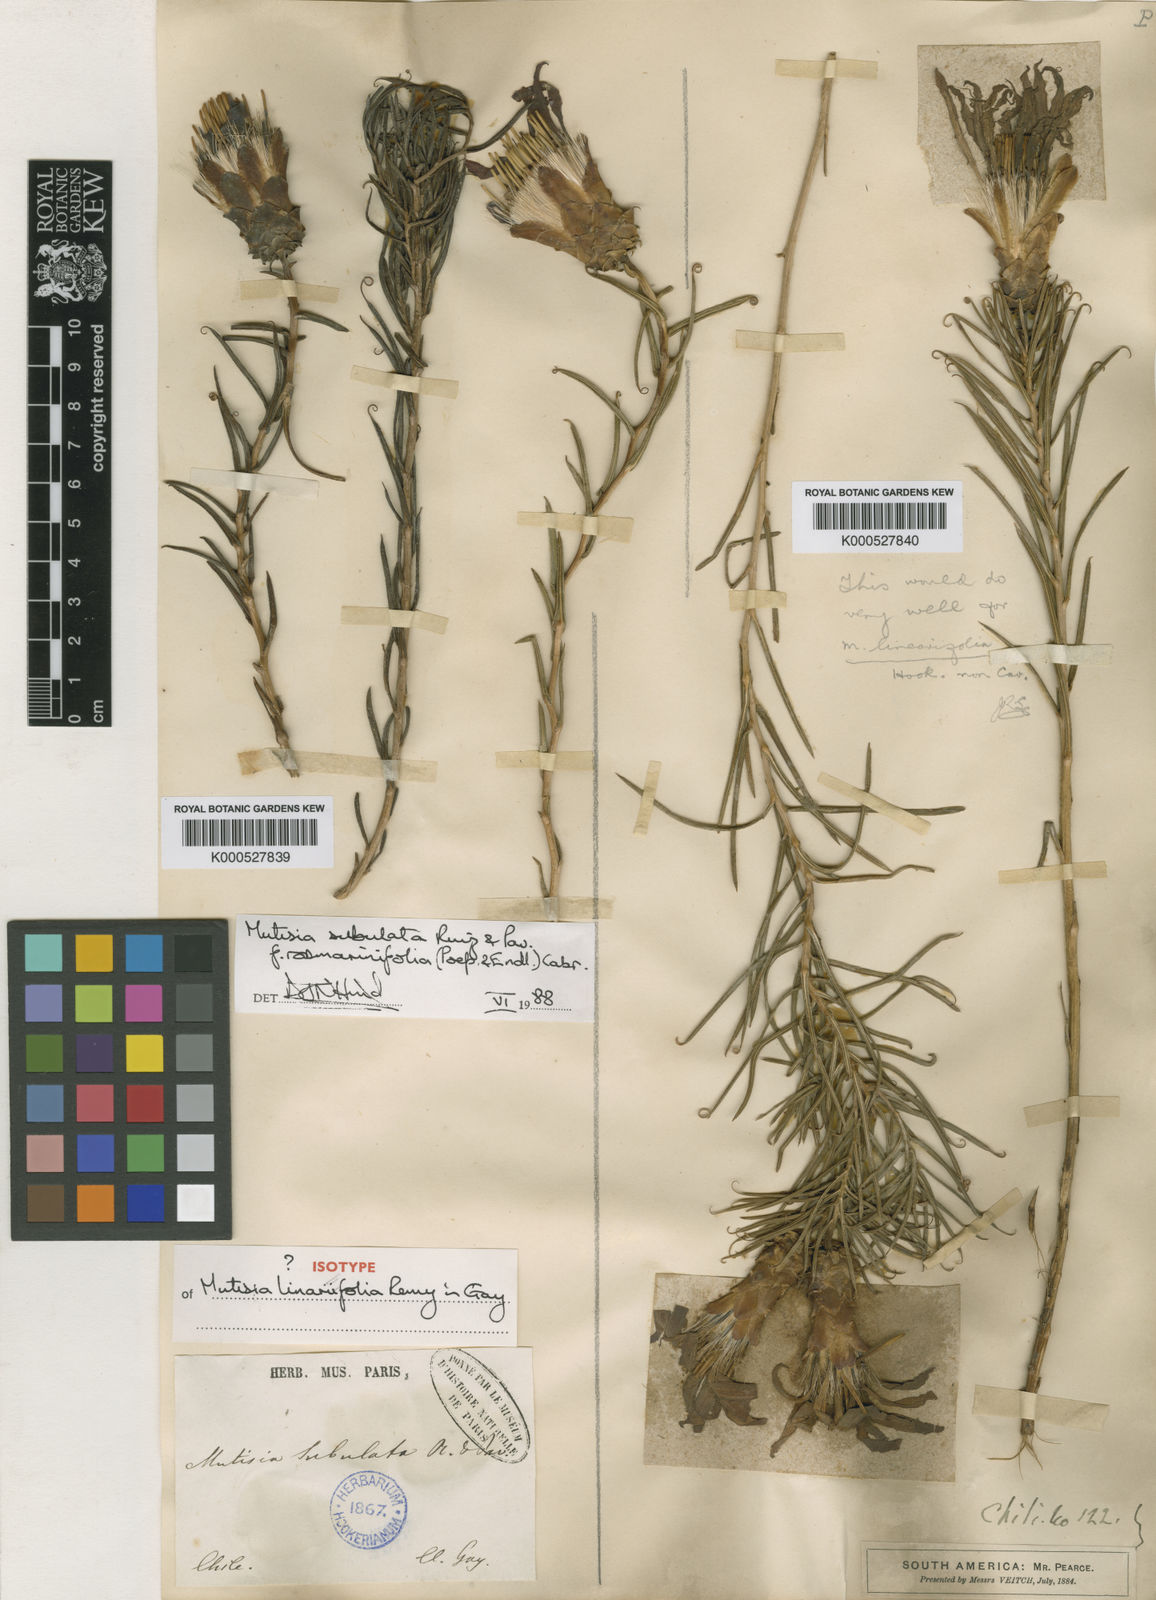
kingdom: Plantae
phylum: Tracheophyta
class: Magnoliopsida
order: Asterales
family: Asteraceae
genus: Mutisia
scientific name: Mutisia subulata
